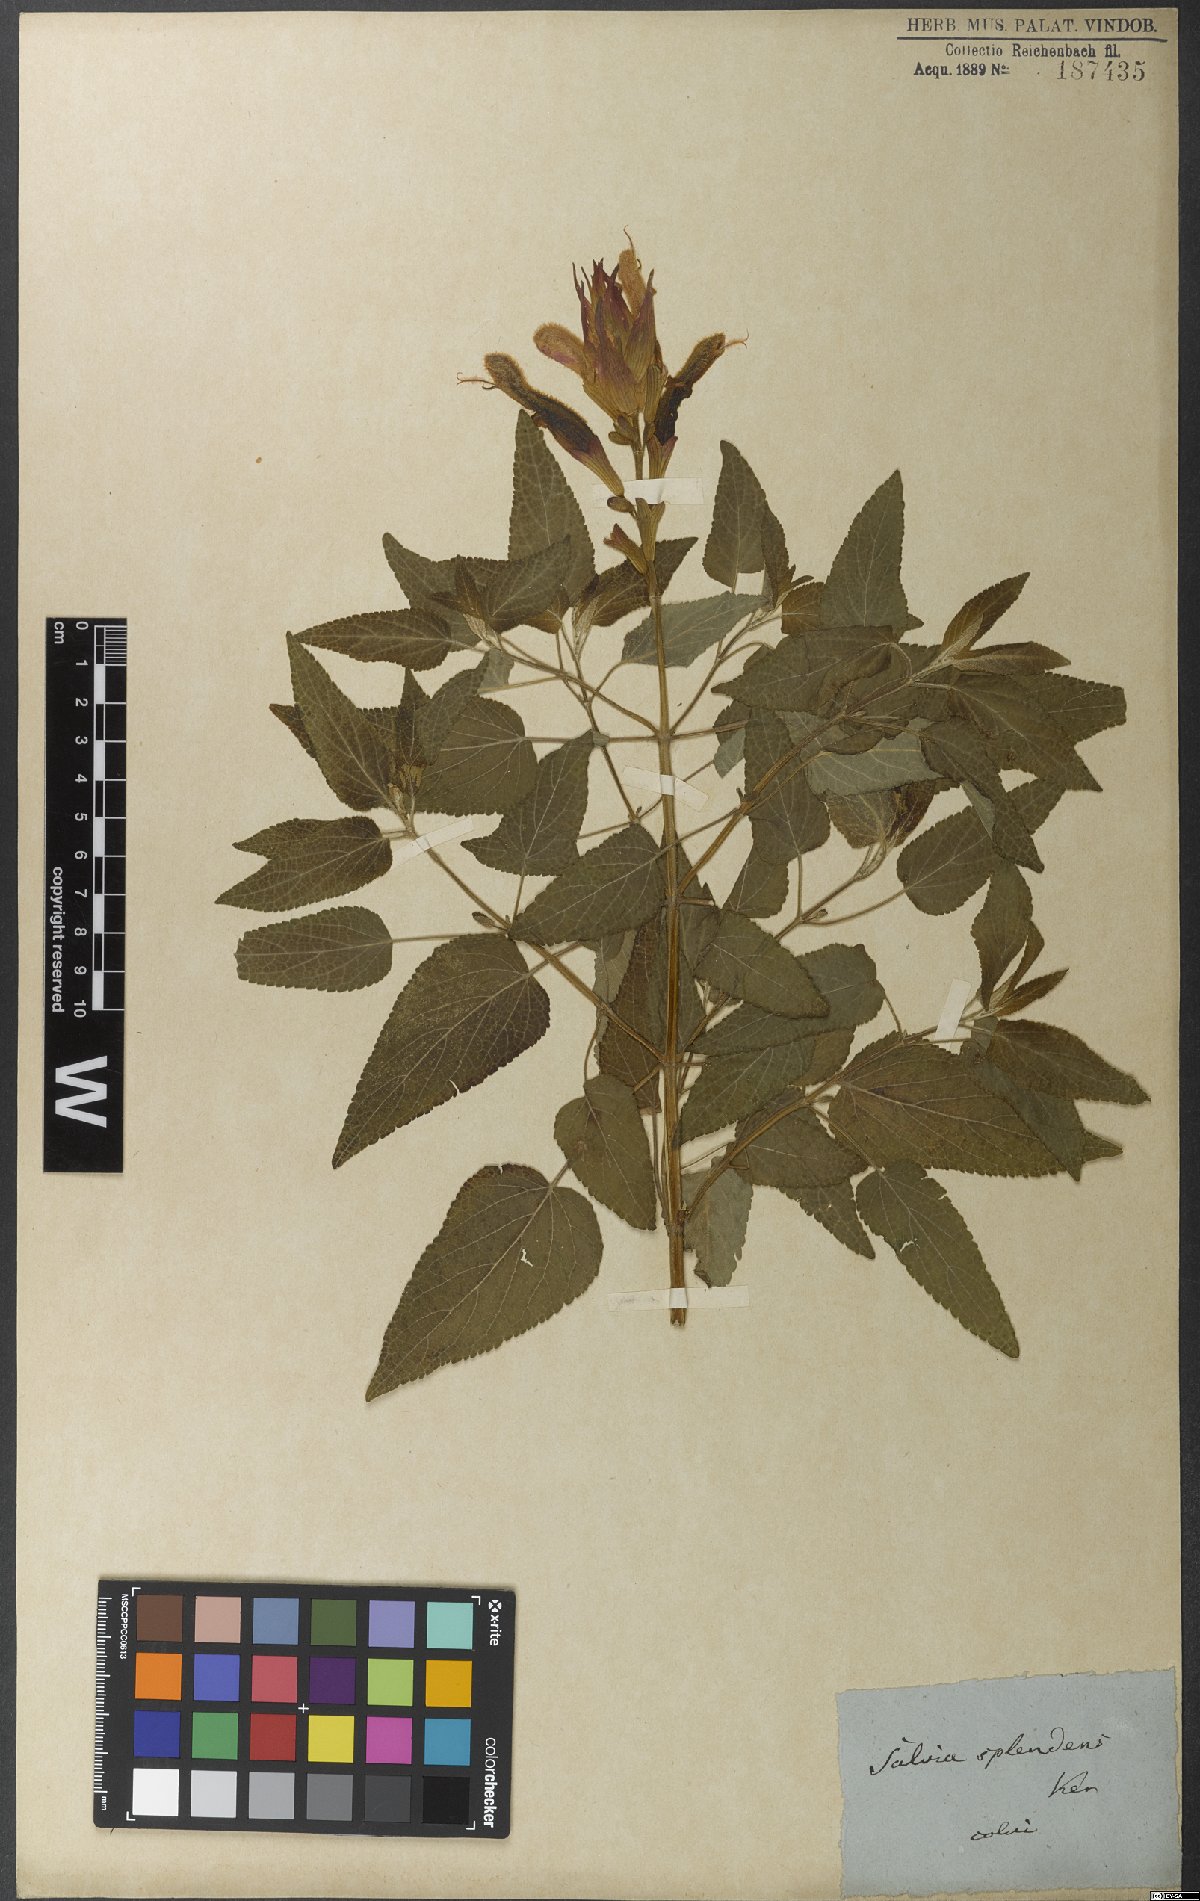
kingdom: Plantae
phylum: Tracheophyta
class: Magnoliopsida
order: Lamiales
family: Lamiaceae
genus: Salvia
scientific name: Salvia splendens
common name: Scarlet sage
